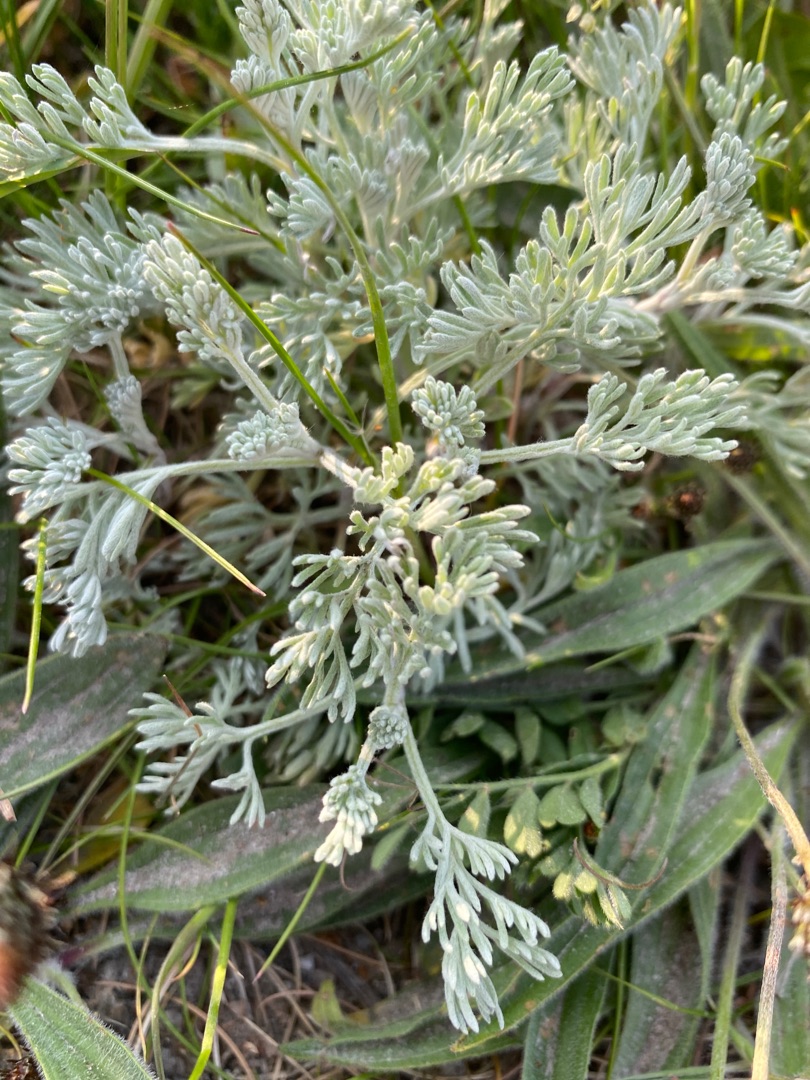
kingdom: Plantae
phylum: Tracheophyta
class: Magnoliopsida
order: Asterales
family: Asteraceae
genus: Artemisia
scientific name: Artemisia maritima
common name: Strandmalurt
